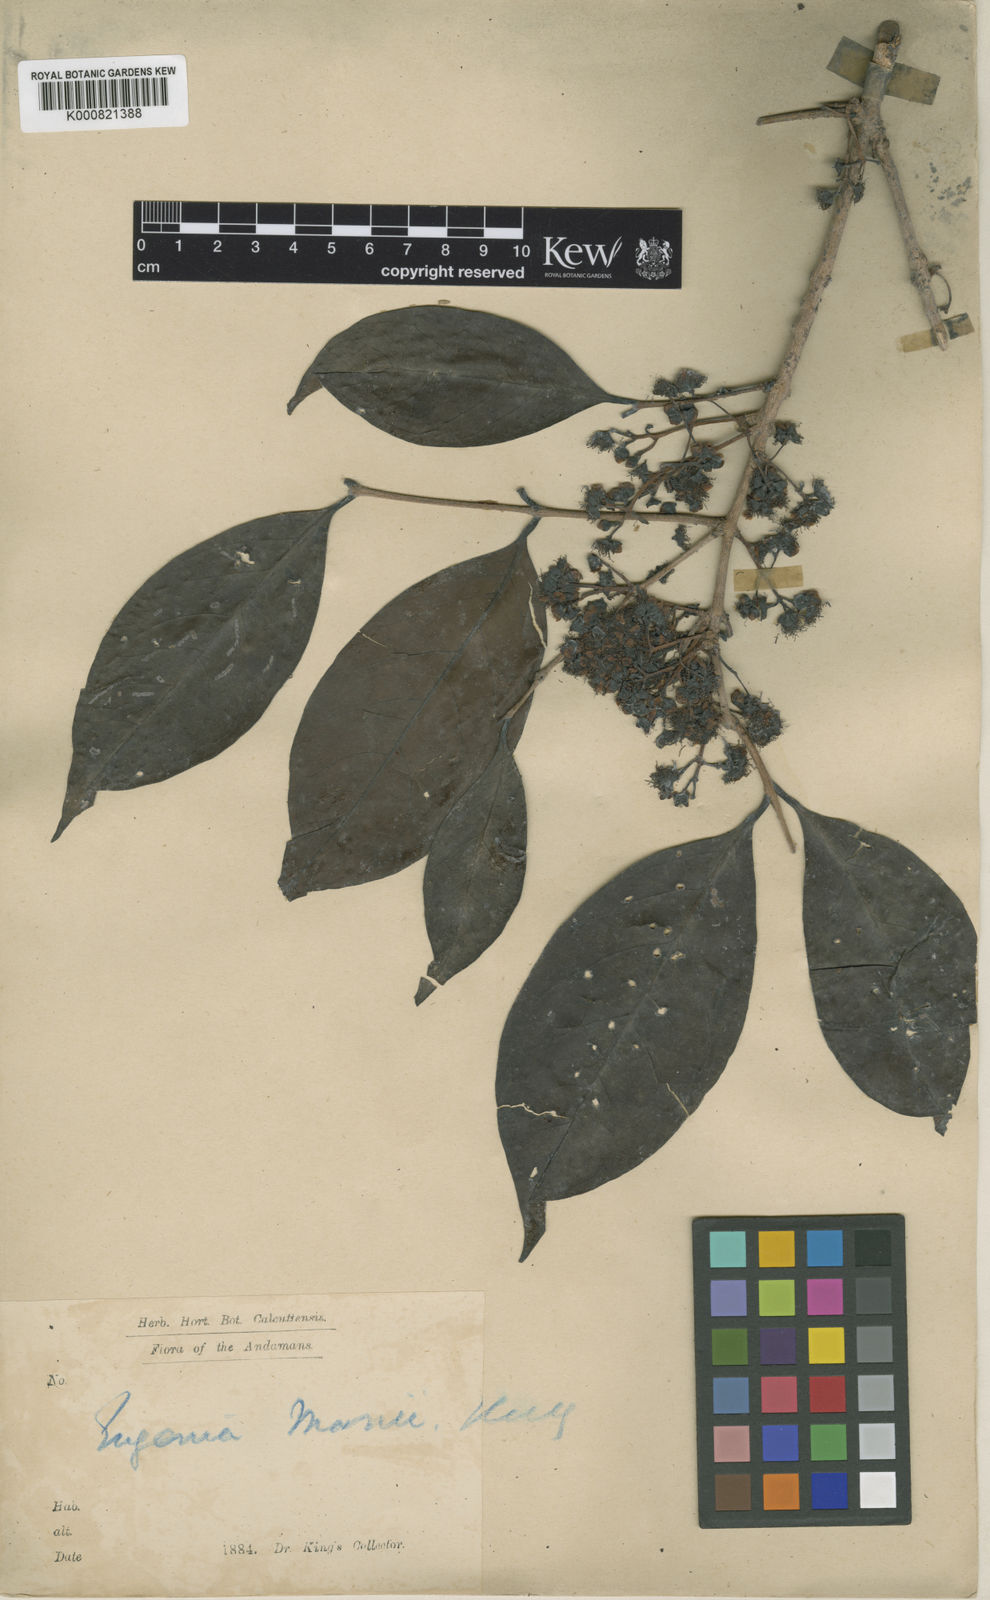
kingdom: Plantae
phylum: Tracheophyta
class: Magnoliopsida
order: Myrtales
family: Myrtaceae
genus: Syzygium
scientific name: Syzygium manii
